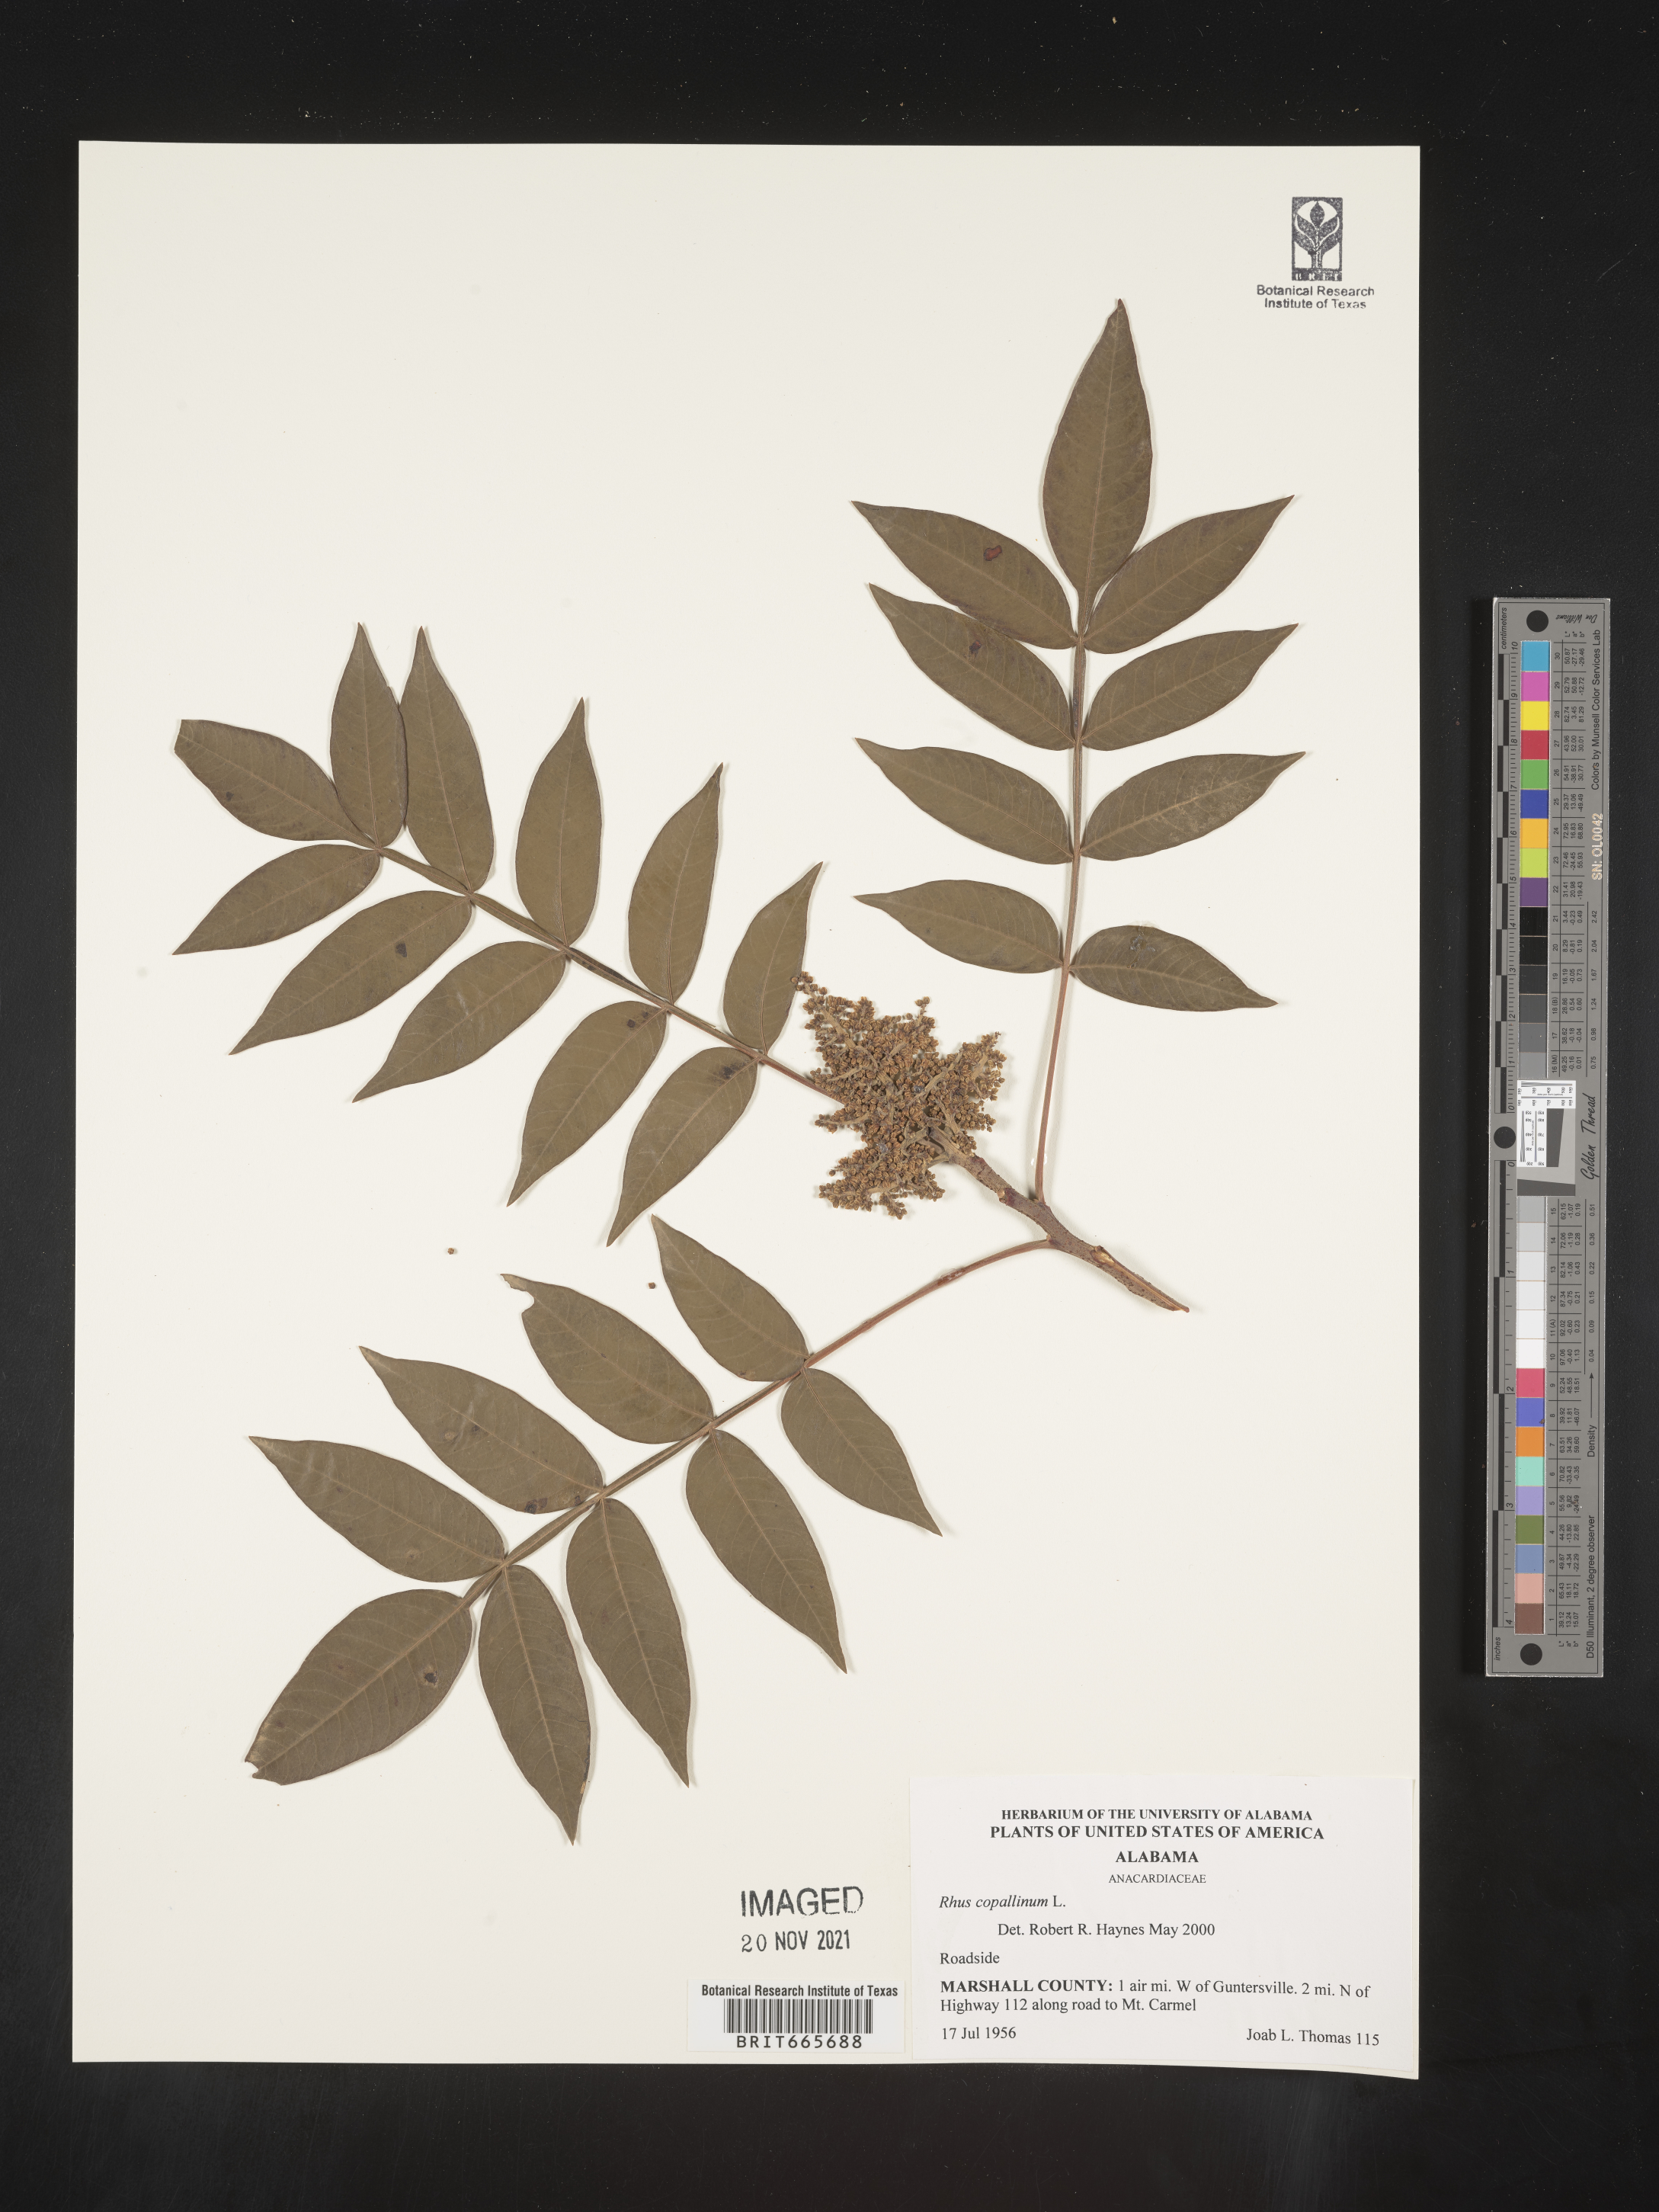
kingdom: Plantae
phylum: Tracheophyta
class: Magnoliopsida
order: Sapindales
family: Anacardiaceae
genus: Rhus
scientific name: Rhus copallina
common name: Shining sumac
